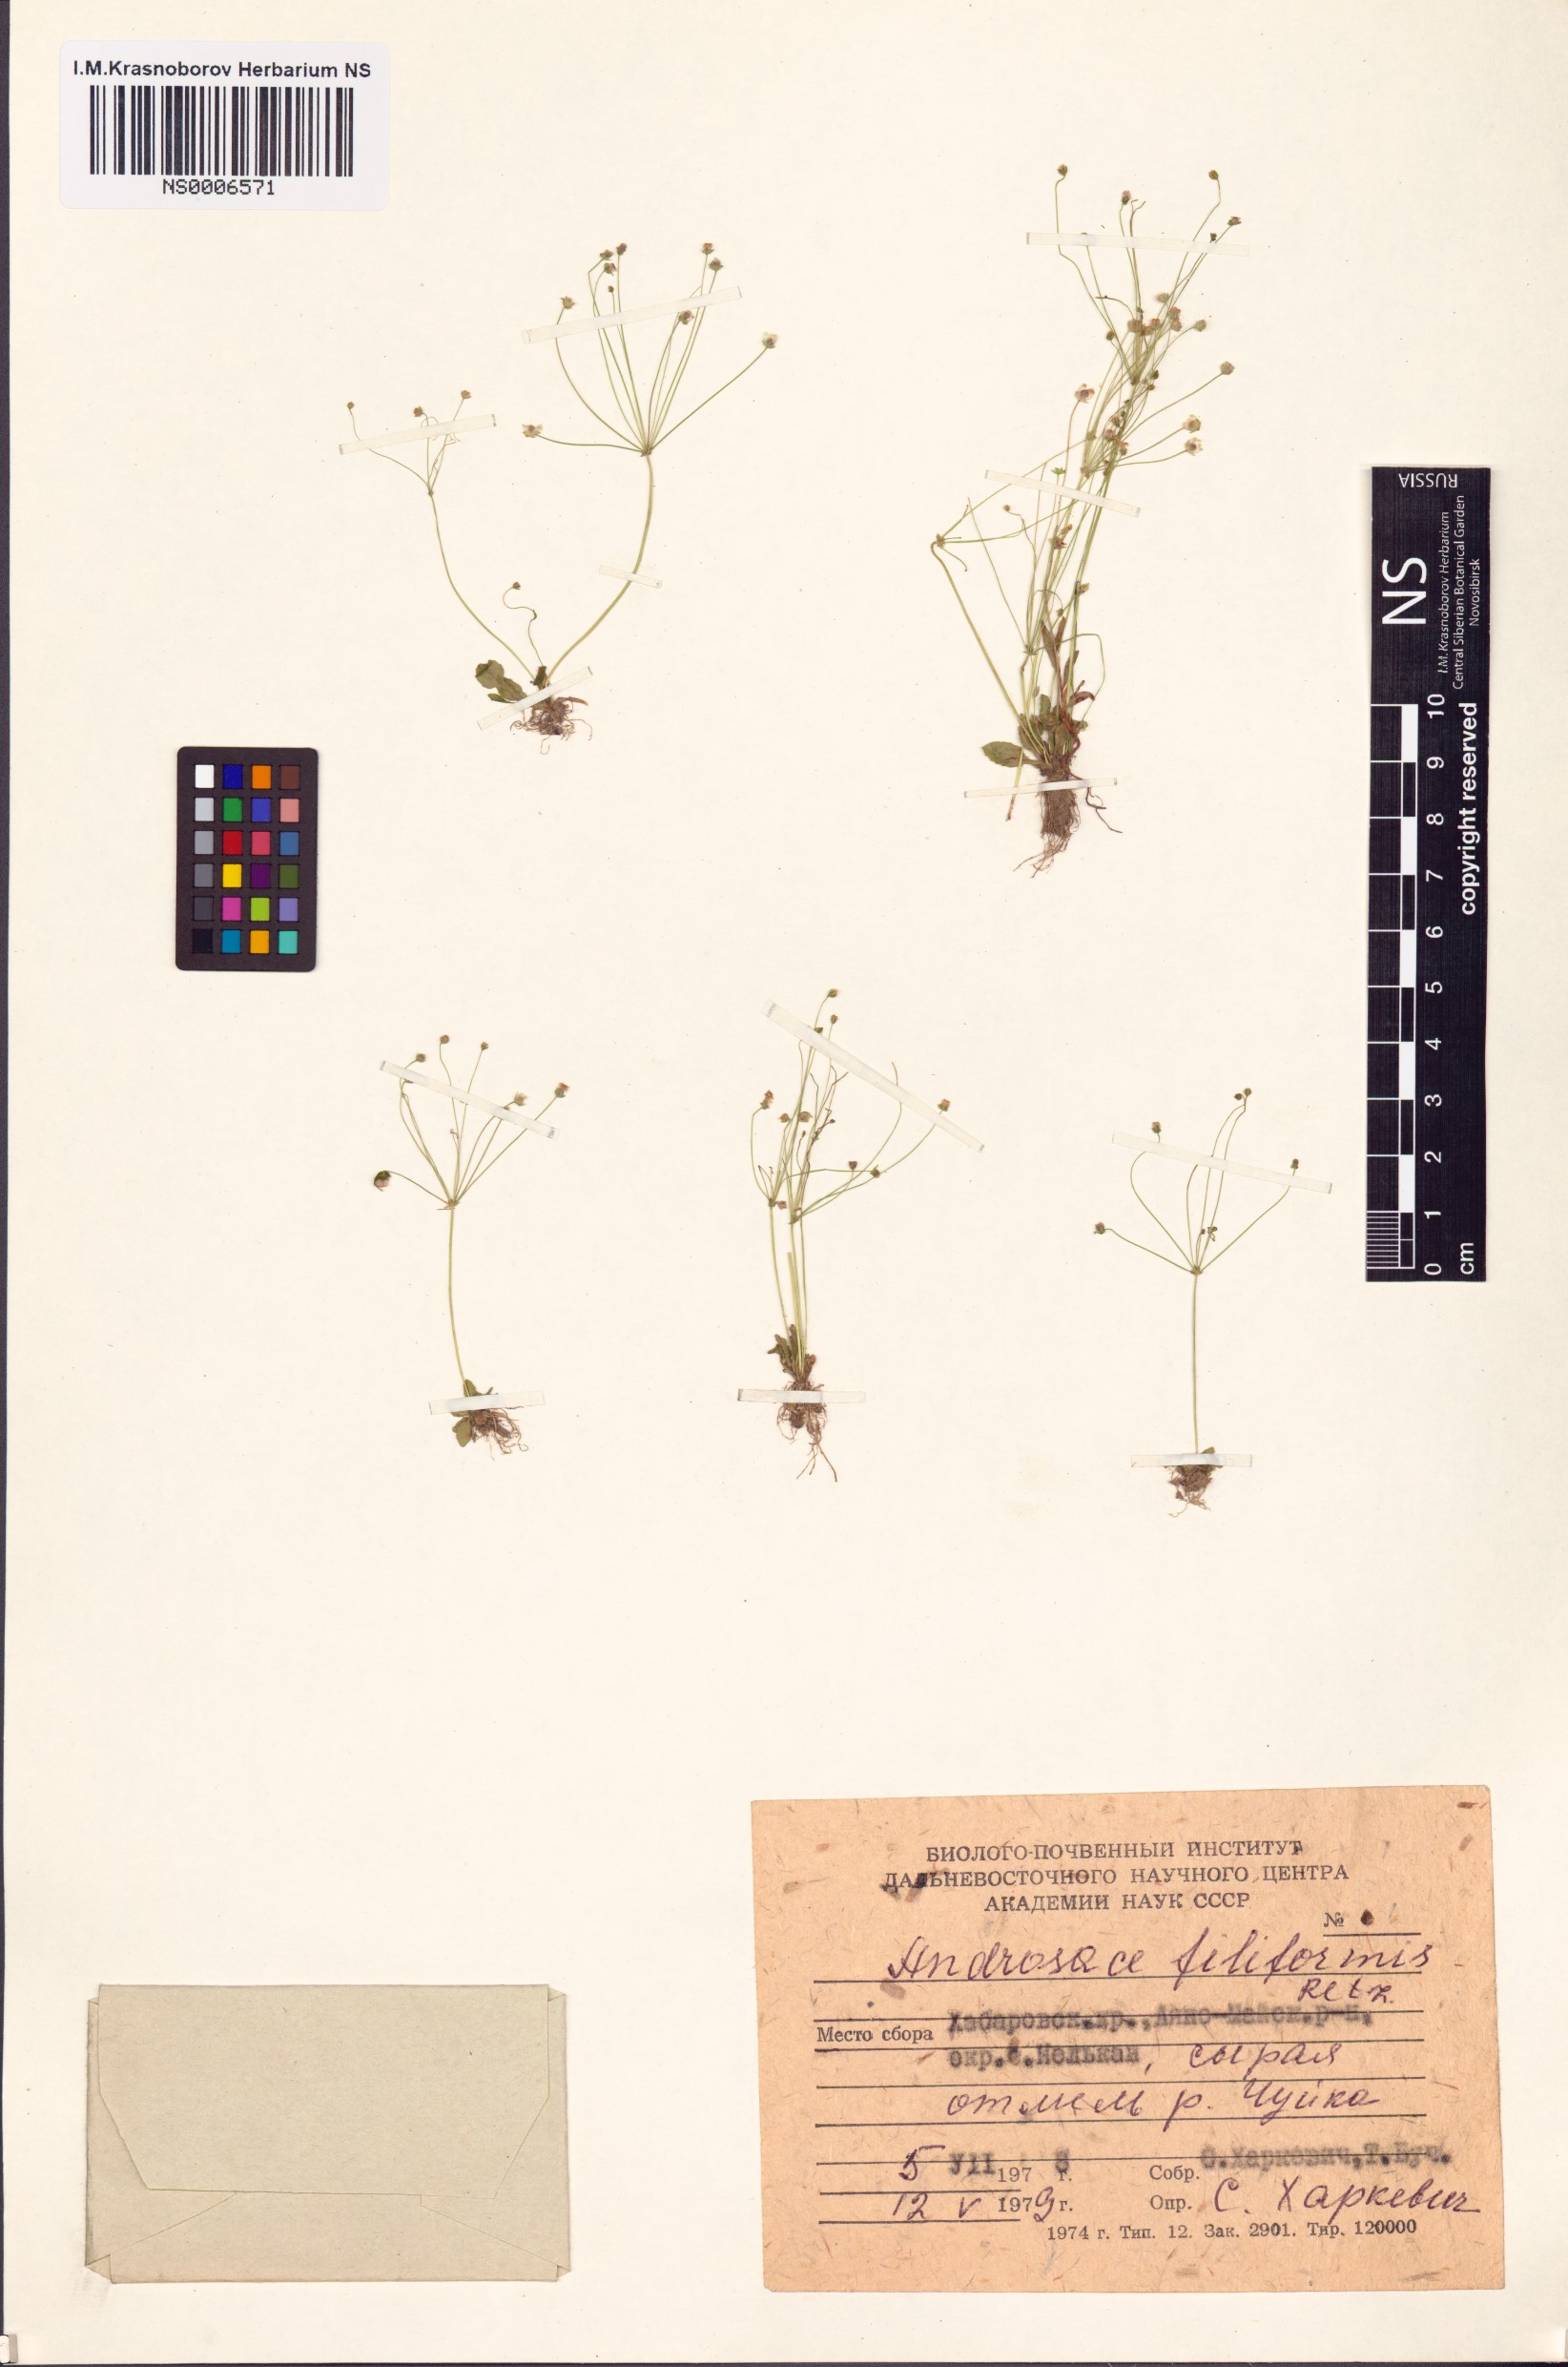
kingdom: Plantae
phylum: Tracheophyta
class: Magnoliopsida
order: Ericales
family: Primulaceae
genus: Androsace
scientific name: Androsace filiformis
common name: Filiform rock jasmine
